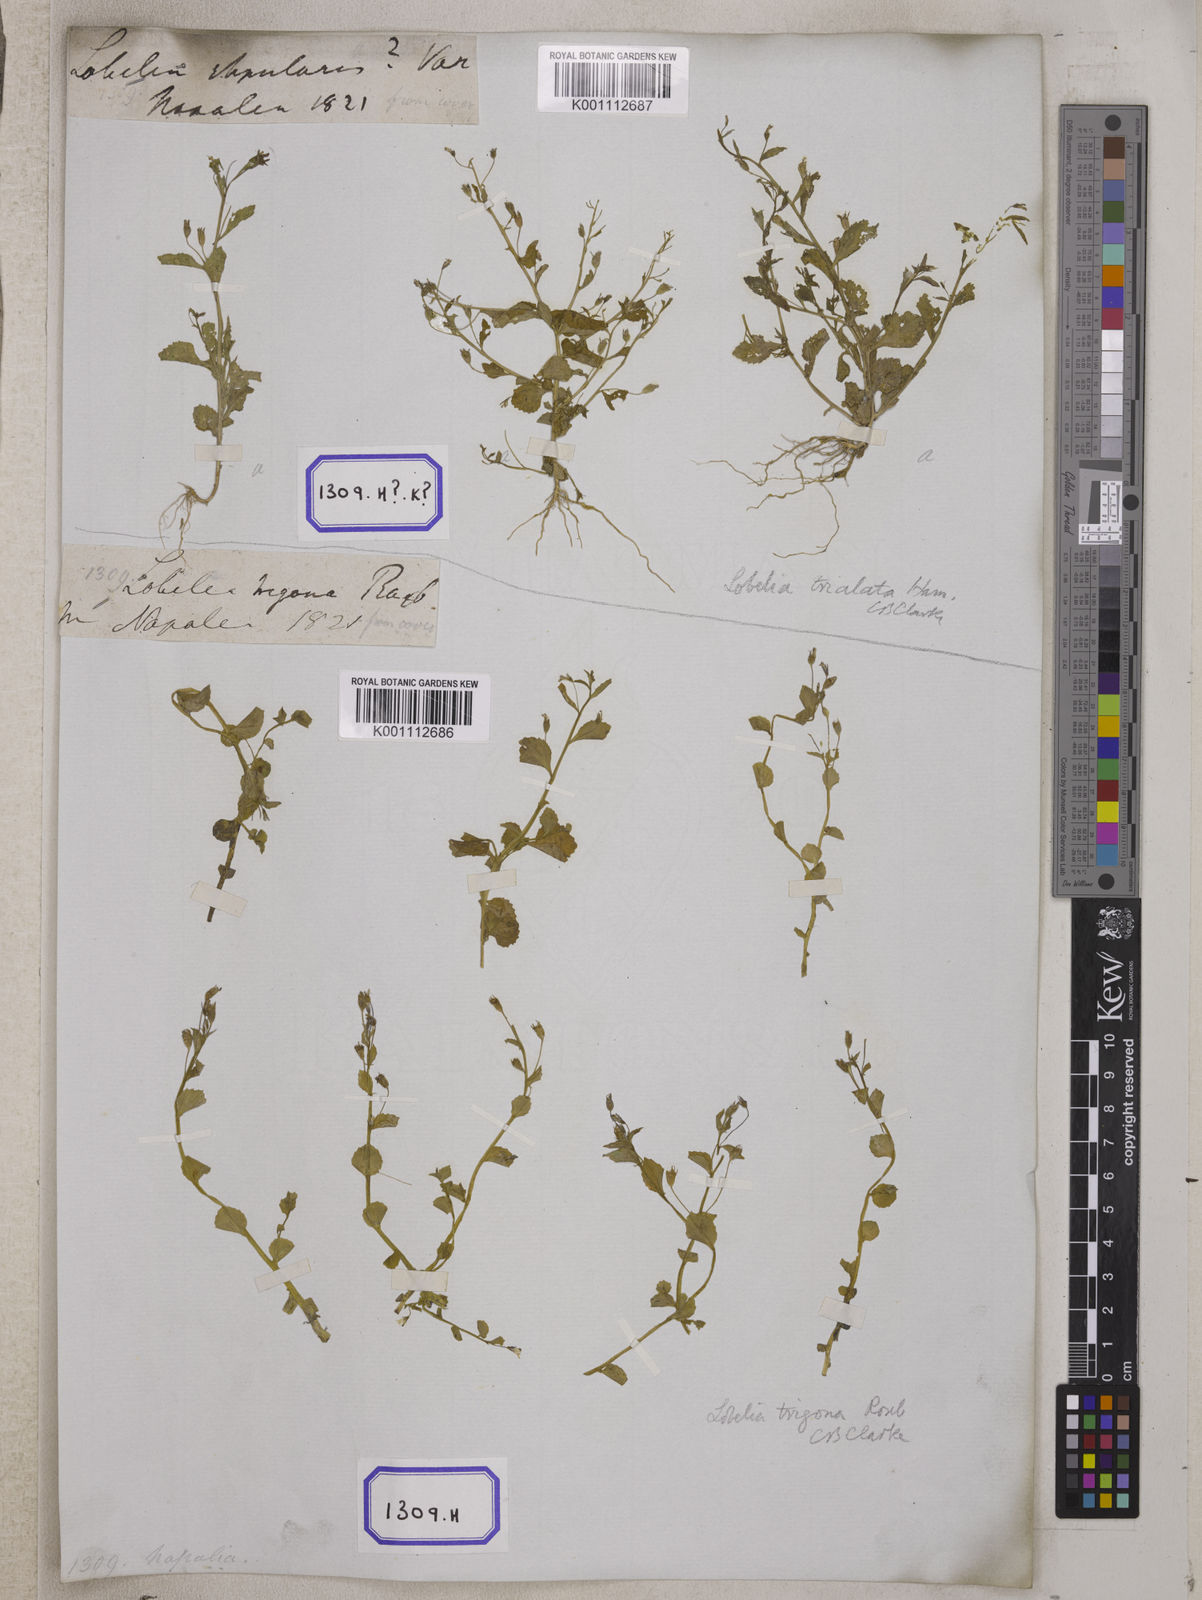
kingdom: Plantae
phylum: Tracheophyta
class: Magnoliopsida
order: Asterales
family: Campanulaceae
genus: Lobelia
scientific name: Lobelia alsinoides
